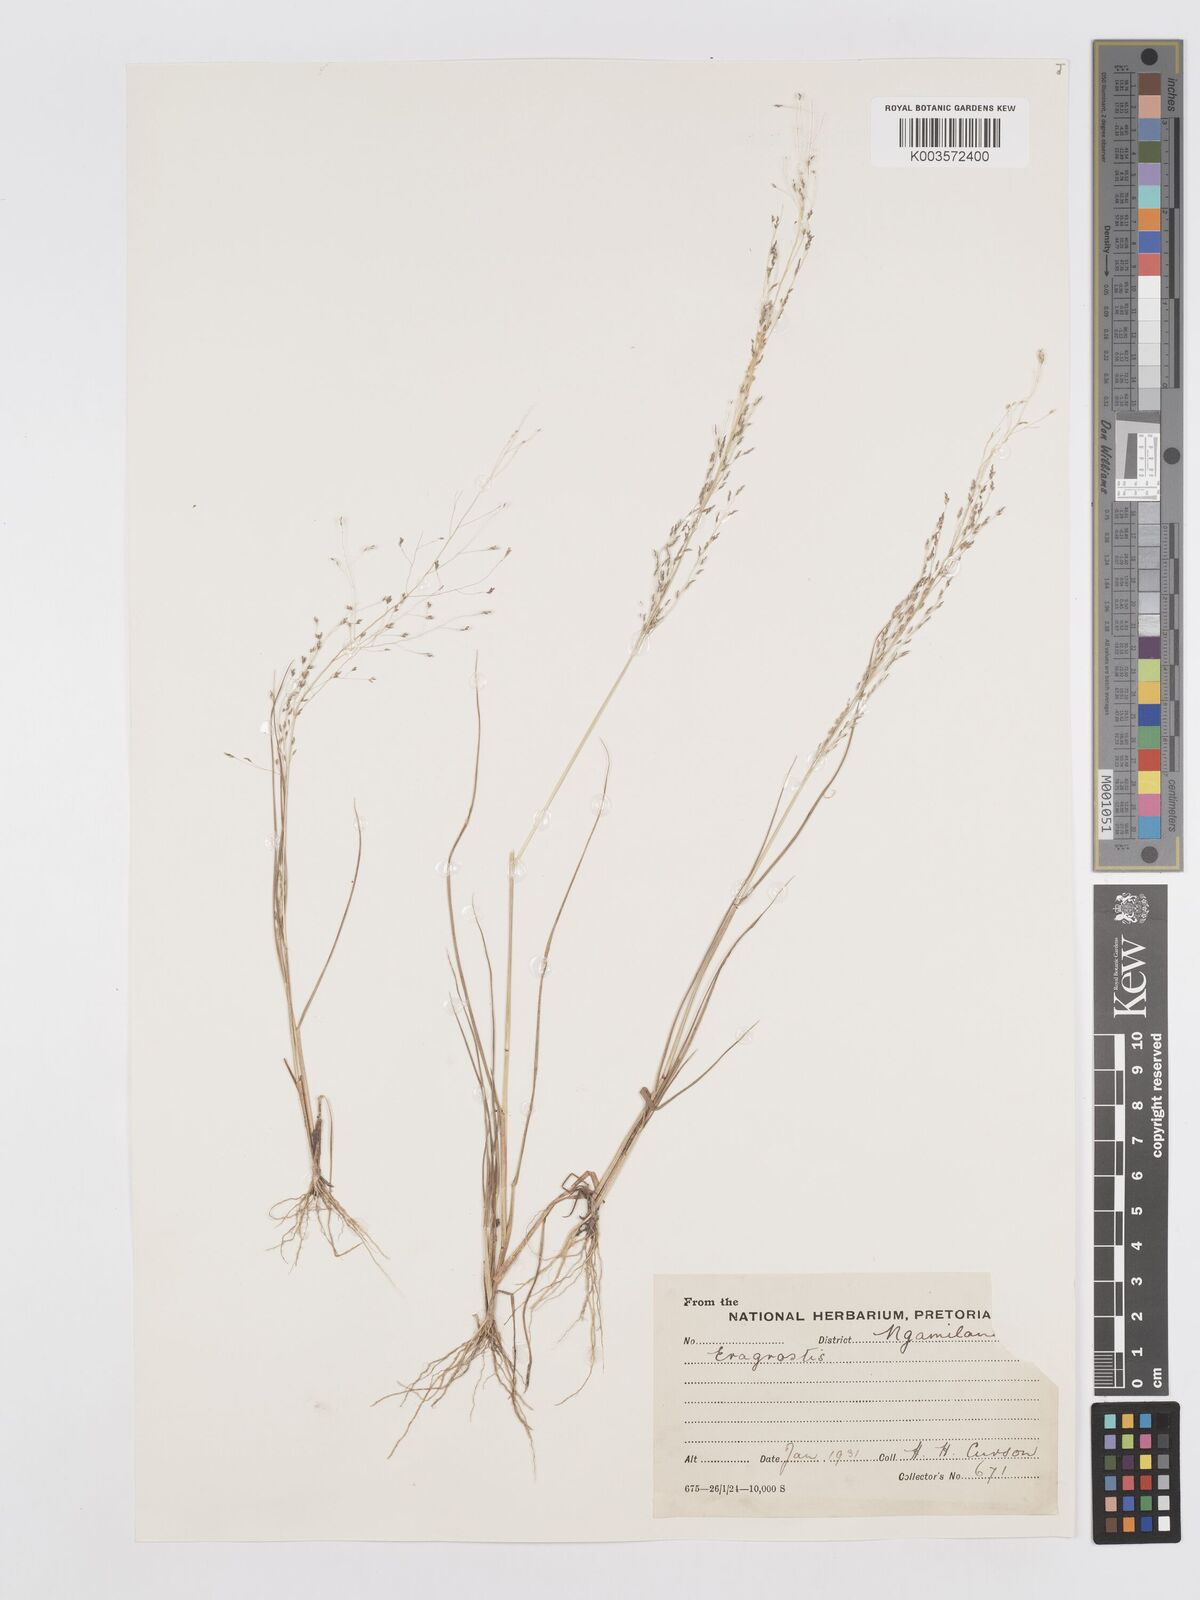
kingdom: Plantae
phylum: Tracheophyta
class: Liliopsida
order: Poales
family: Poaceae
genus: Eragrostis
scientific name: Eragrostis
